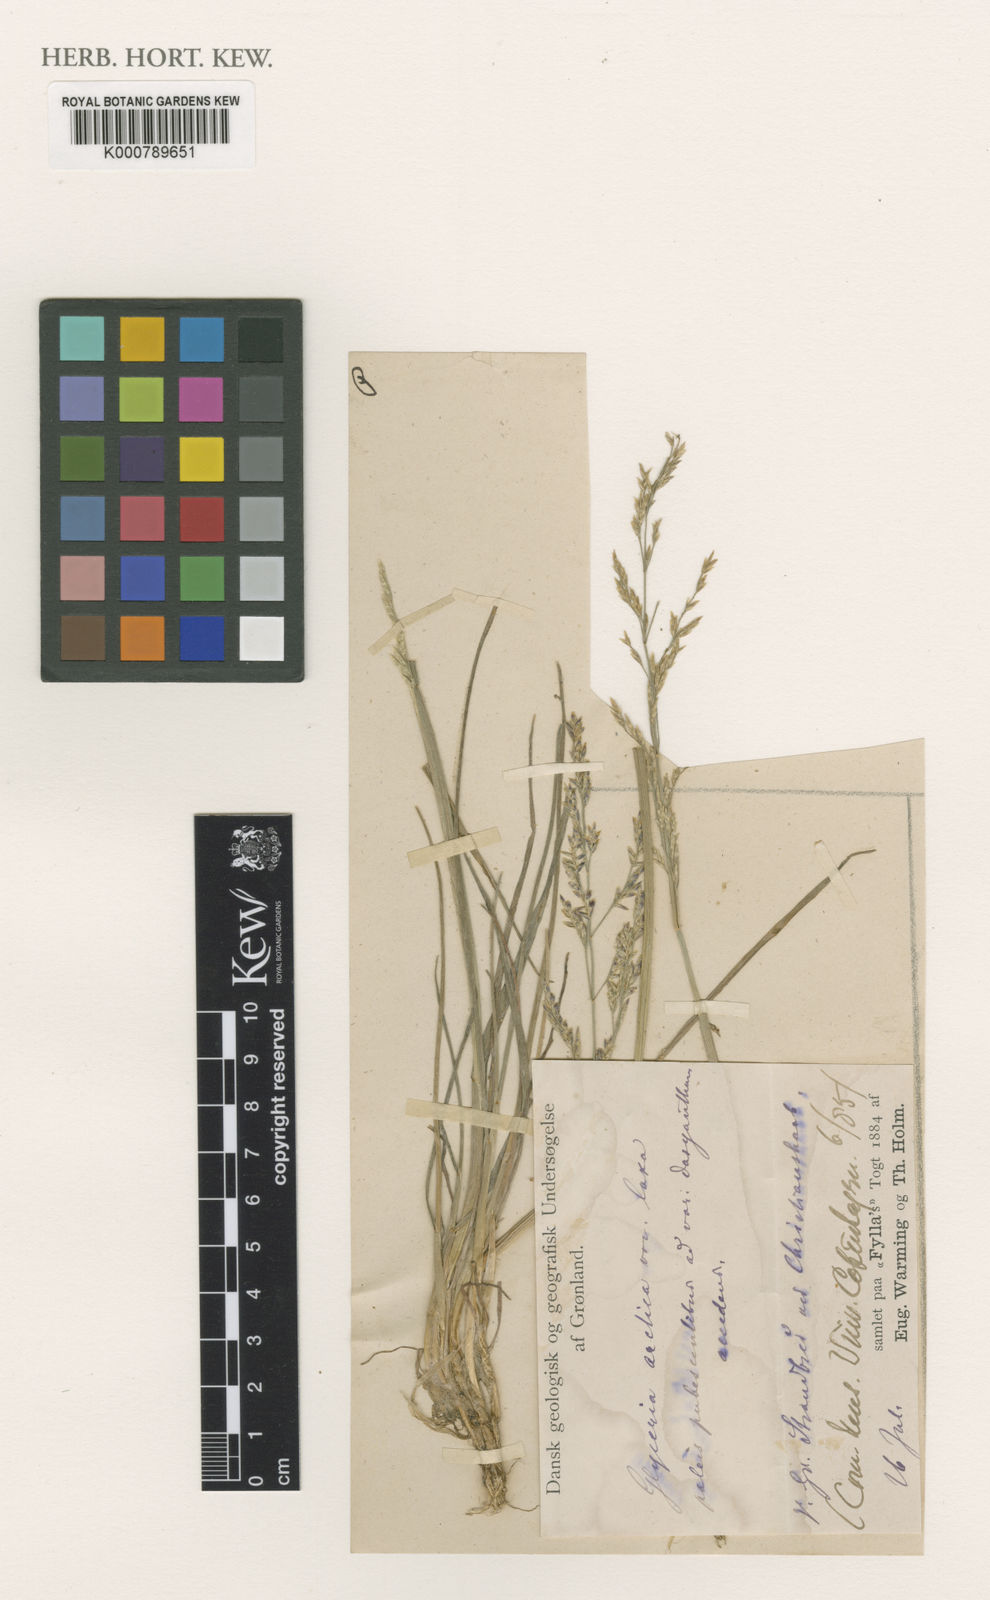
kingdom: Plantae
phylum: Tracheophyta
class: Liliopsida
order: Poales
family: Poaceae
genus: Puccinellia
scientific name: Puccinellia arctica
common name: Arctic alkali grass
